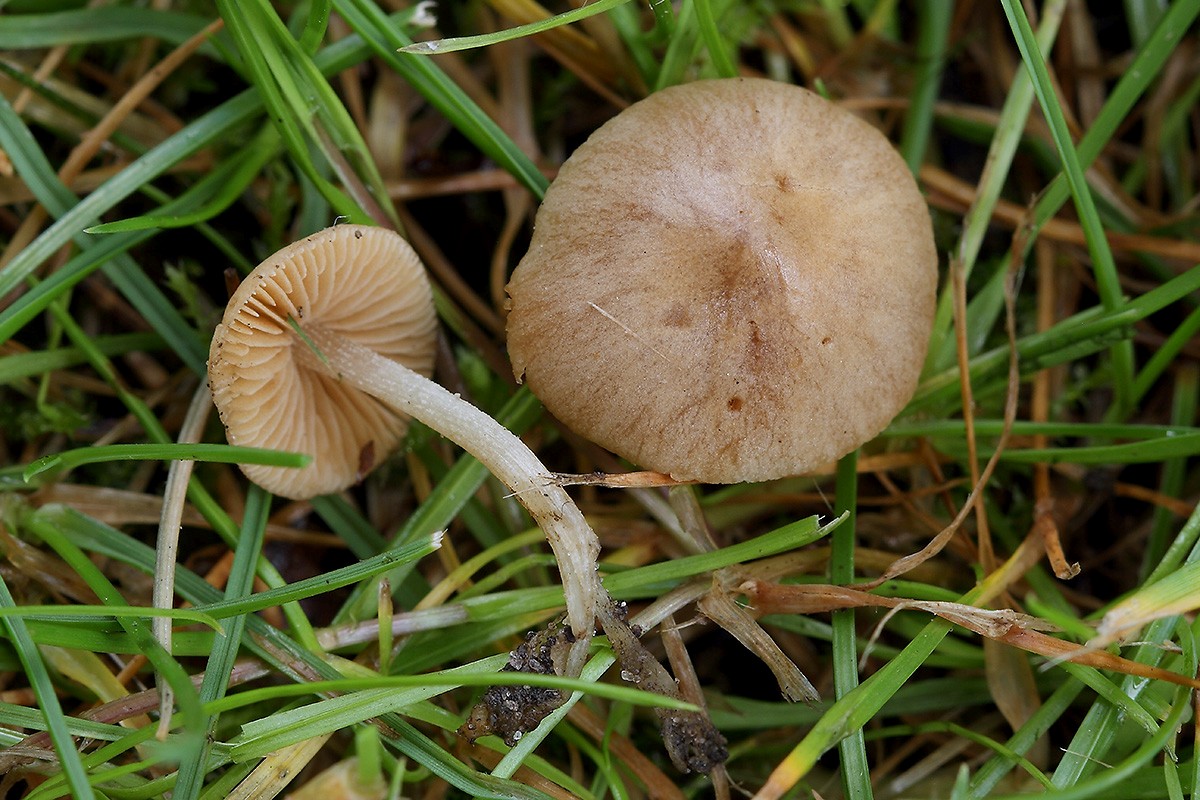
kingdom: Fungi
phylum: Basidiomycota
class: Agaricomycetes
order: Agaricales
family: Bolbitiaceae
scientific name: Bolbitiaceae
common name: gulhatfamilien
